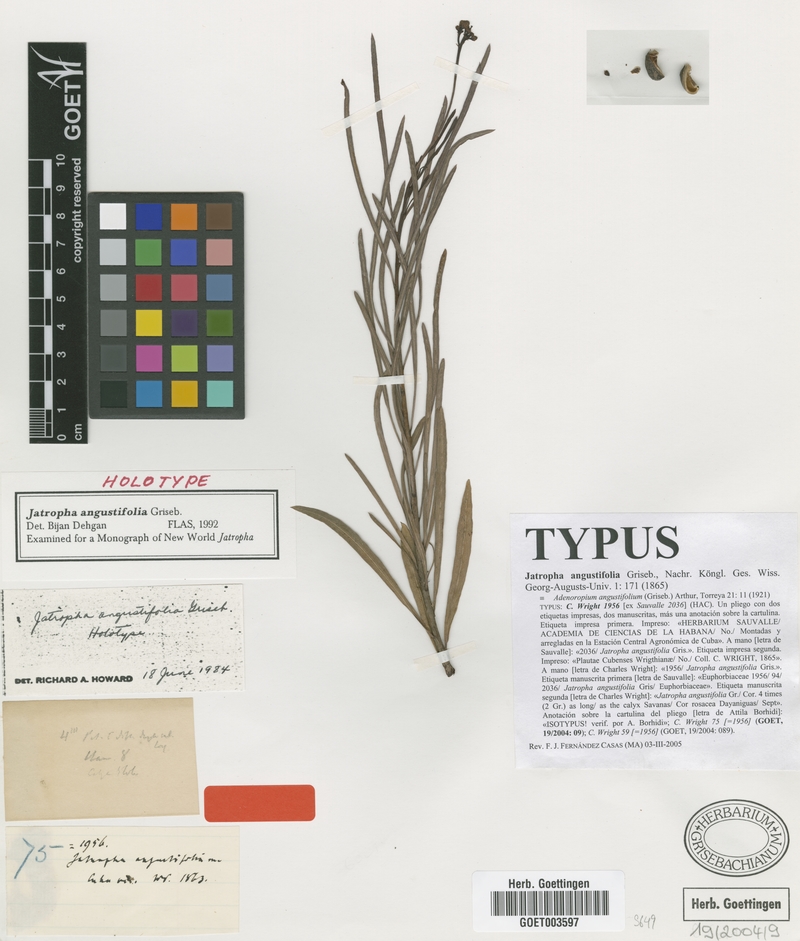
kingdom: Plantae
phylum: Tracheophyta
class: Magnoliopsida
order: Malpighiales
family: Euphorbiaceae
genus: Jatropha
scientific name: Jatropha angustifolia
